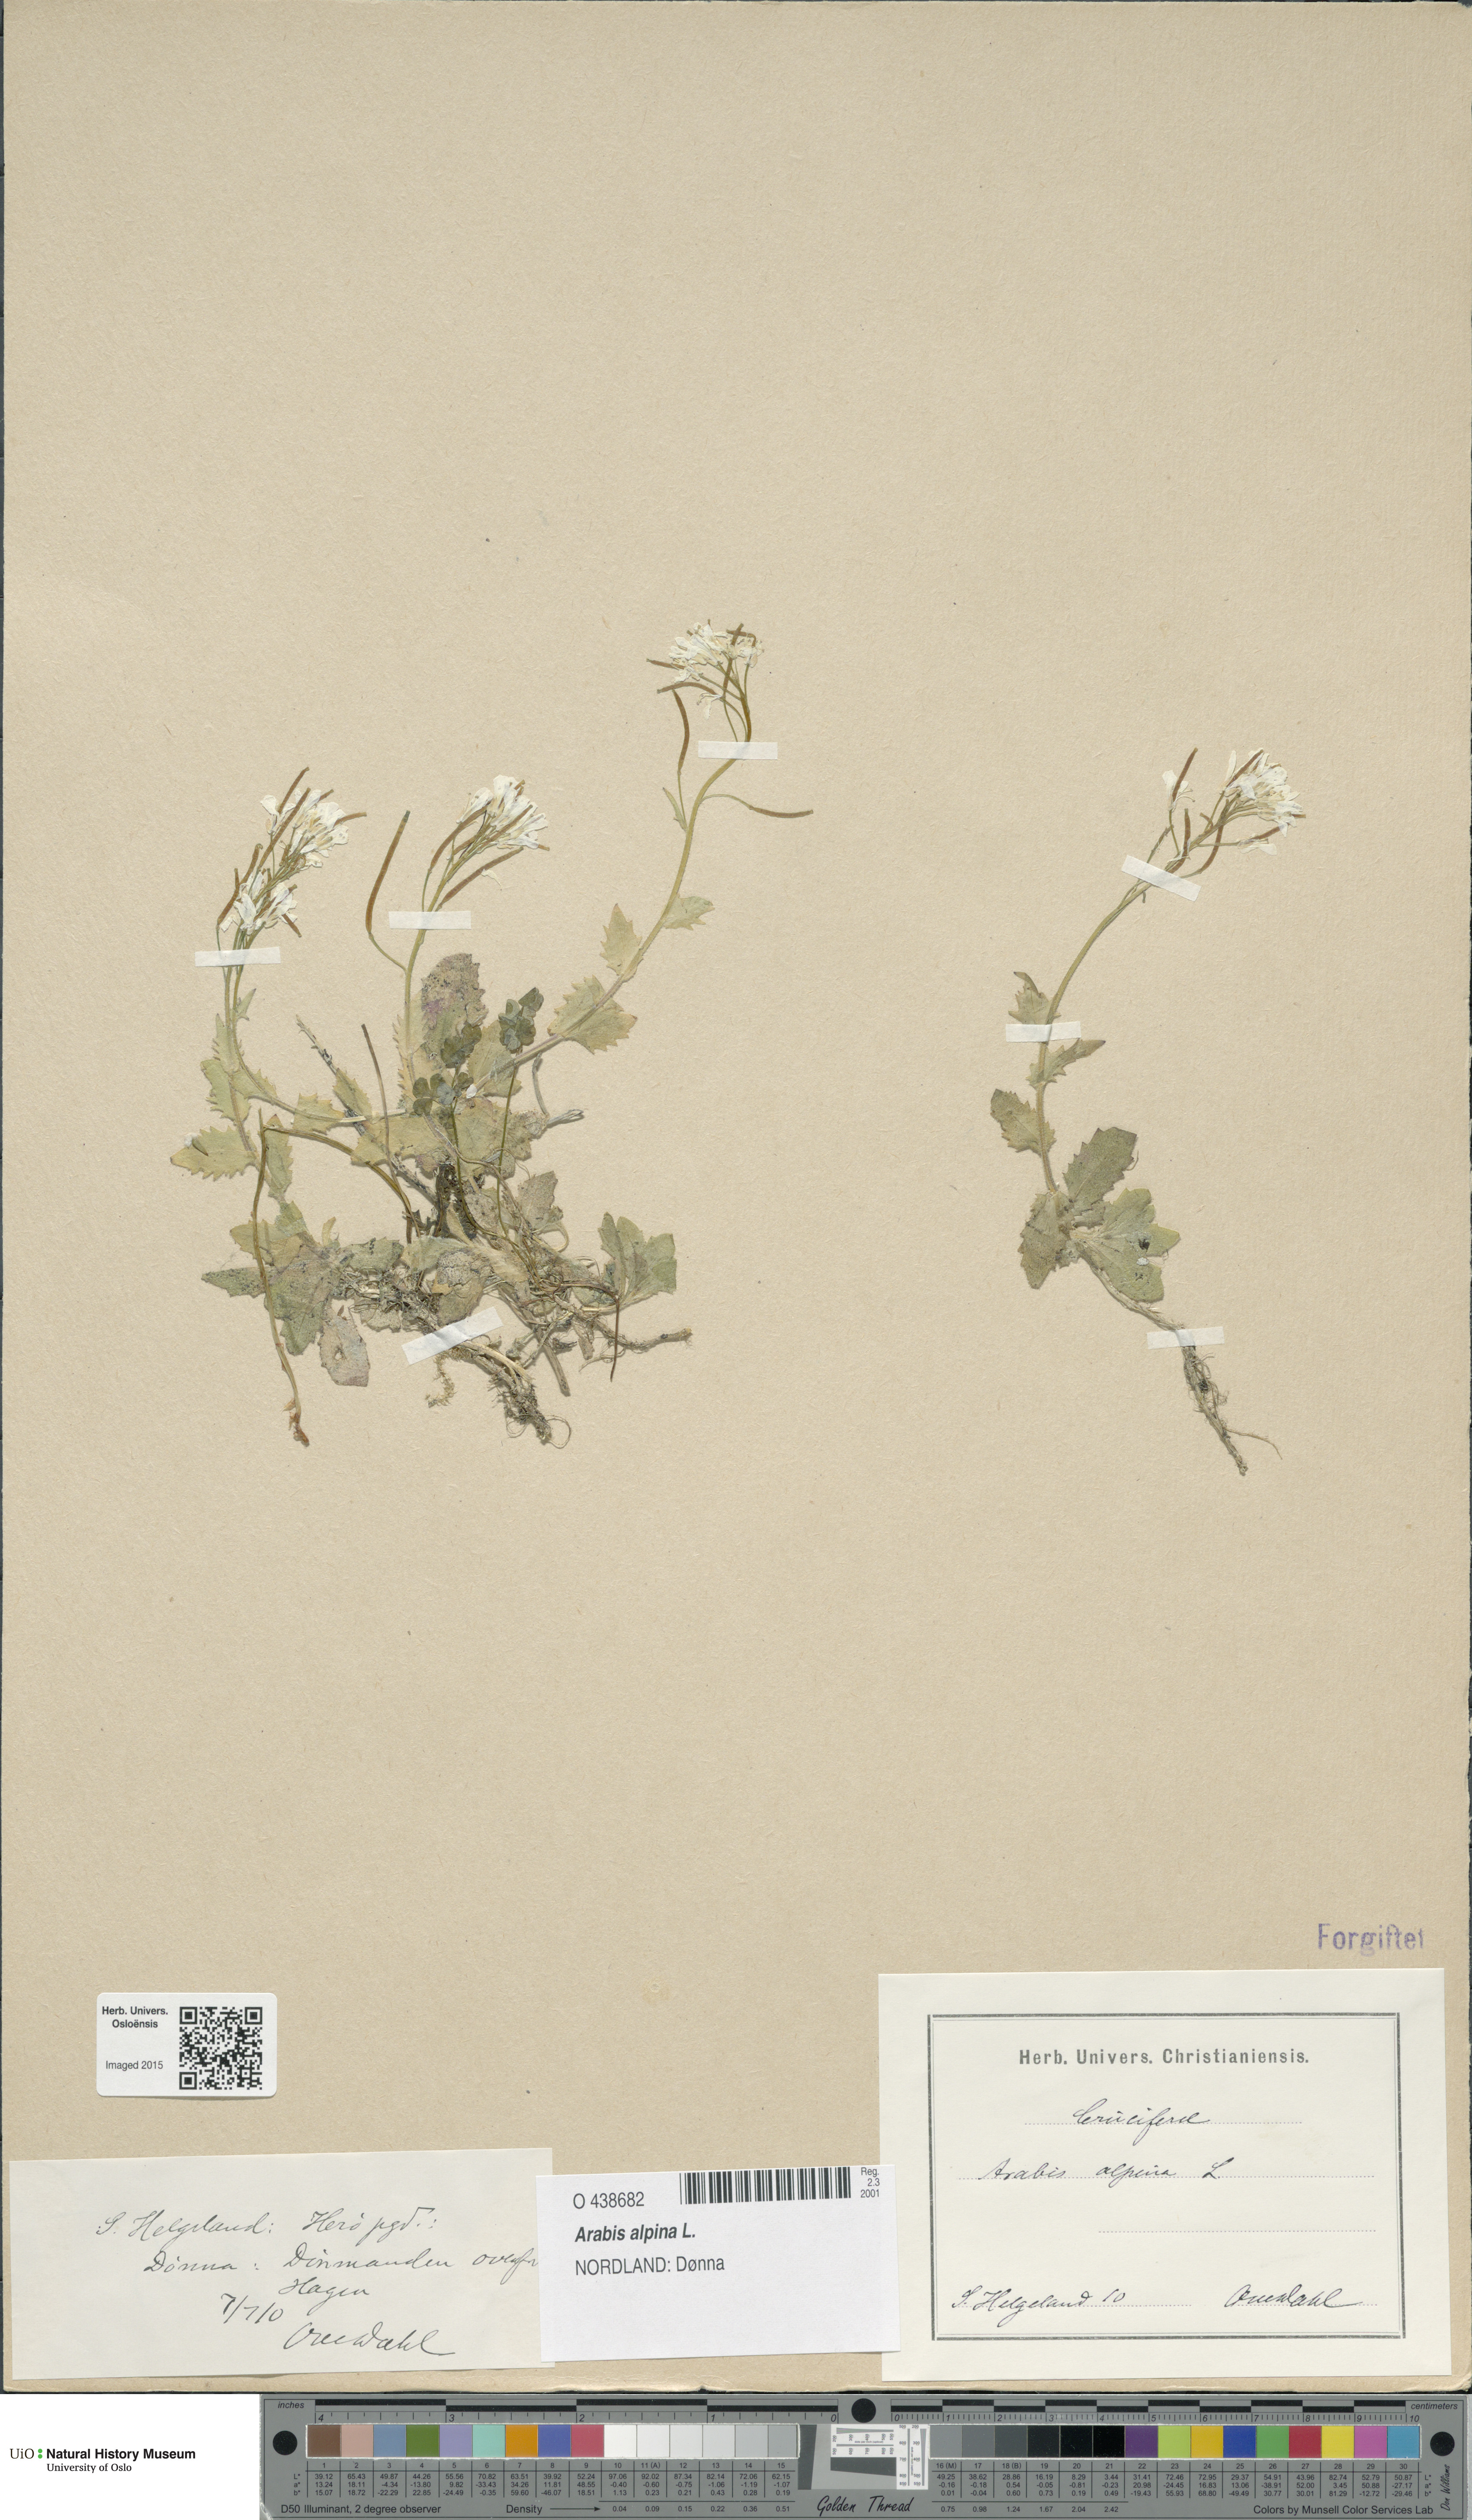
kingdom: Plantae
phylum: Tracheophyta
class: Magnoliopsida
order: Brassicales
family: Brassicaceae
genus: Arabis
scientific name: Arabis alpina
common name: Alpine rock-cress
